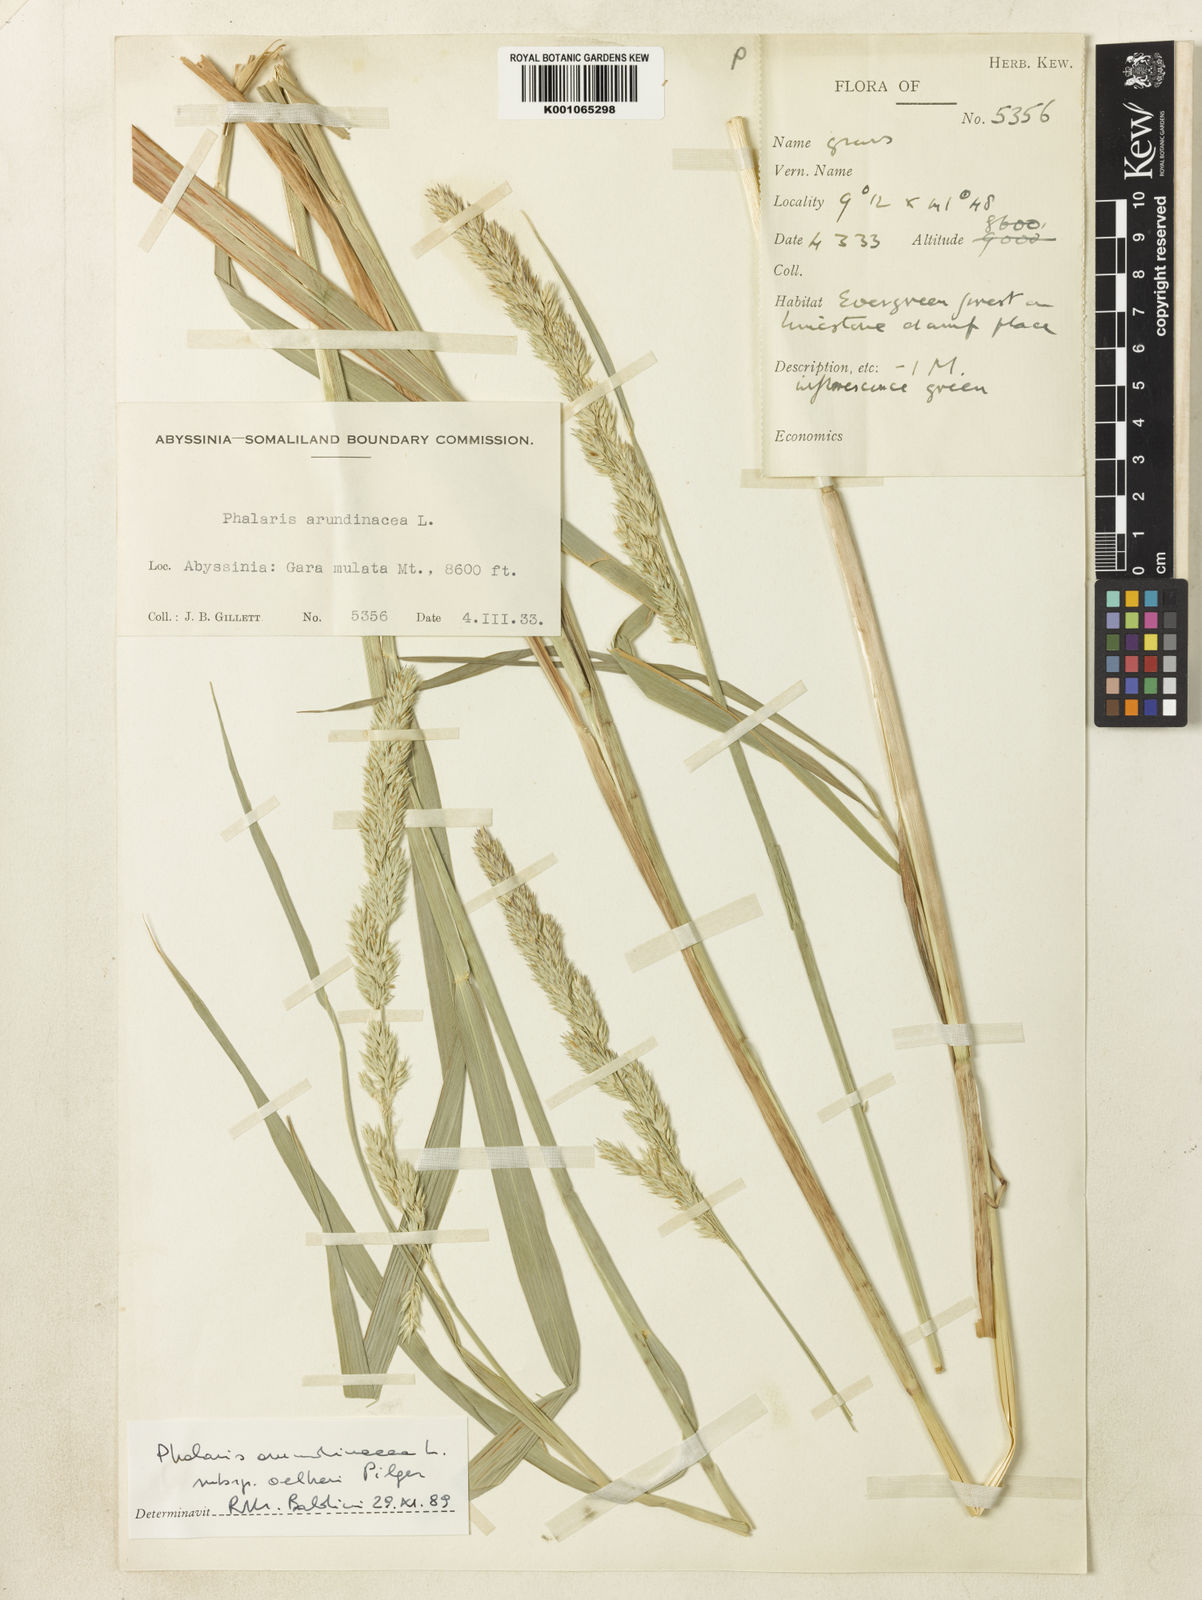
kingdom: Plantae
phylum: Tracheophyta
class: Liliopsida
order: Poales
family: Poaceae
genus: Phalaris
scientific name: Phalaris arundinacea
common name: Reed canary-grass
